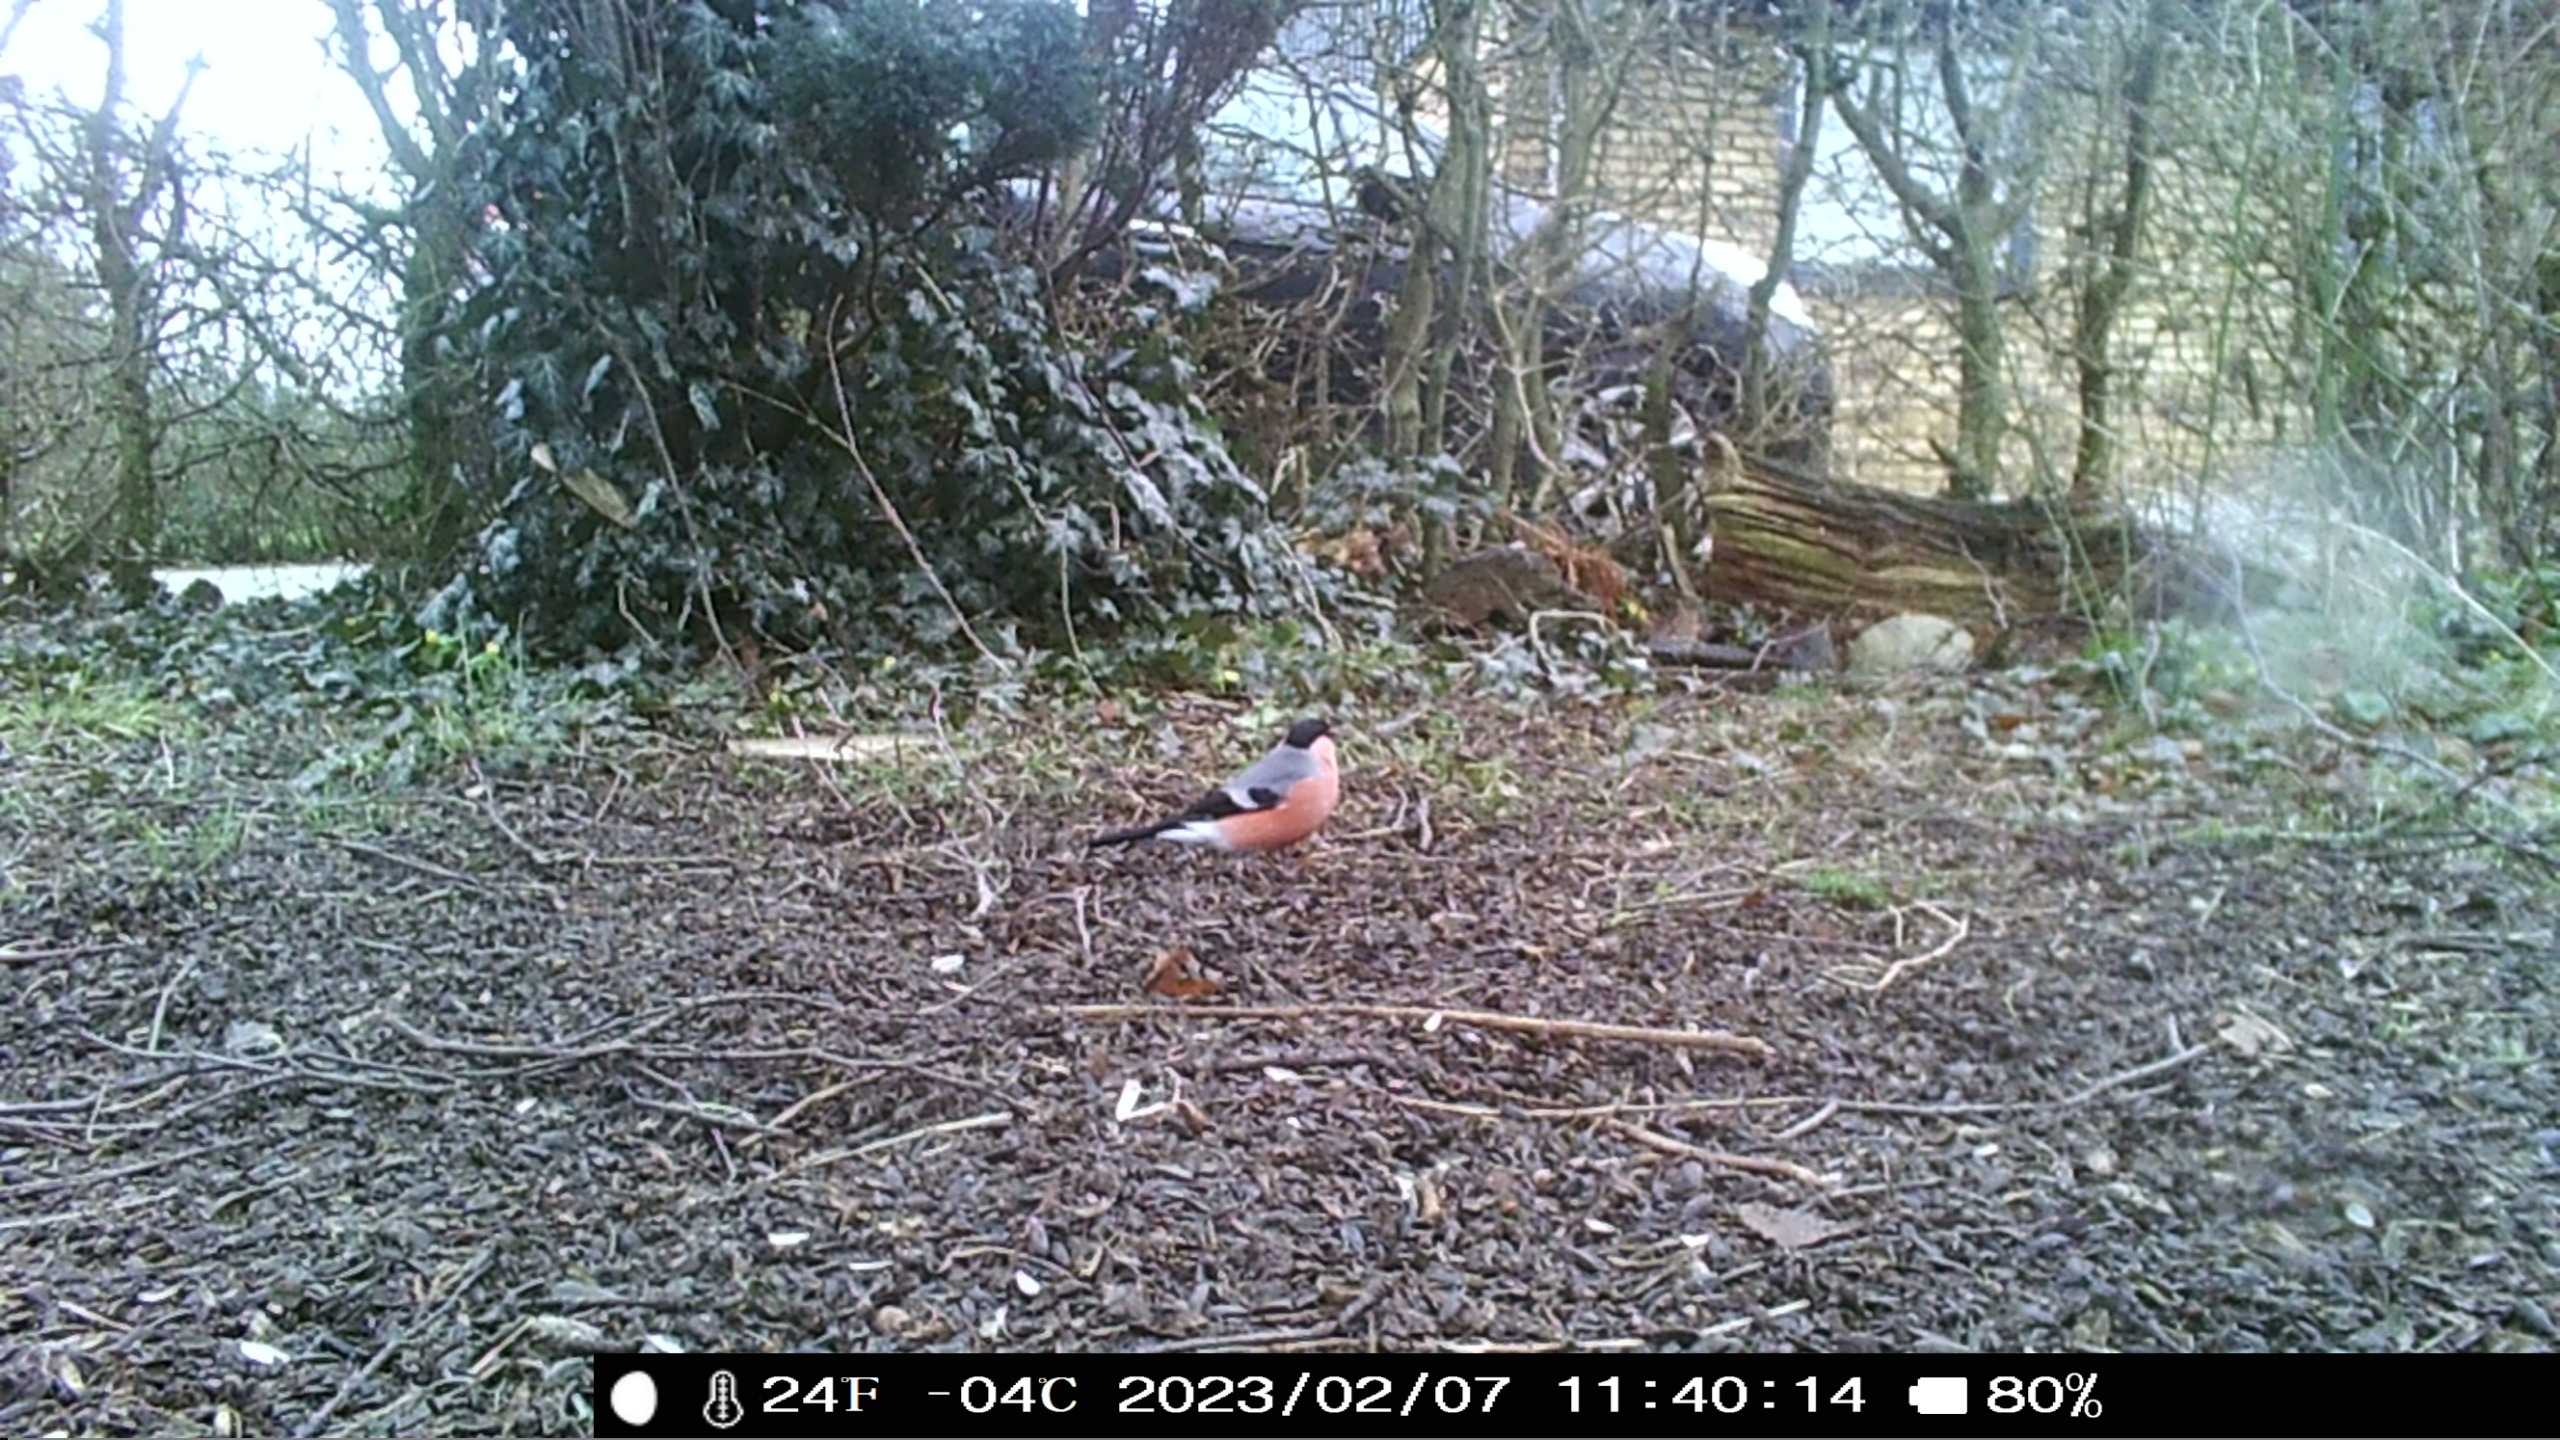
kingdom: Animalia
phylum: Chordata
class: Aves
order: Passeriformes
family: Fringillidae
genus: Pyrrhula
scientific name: Pyrrhula pyrrhula
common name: Dompap
